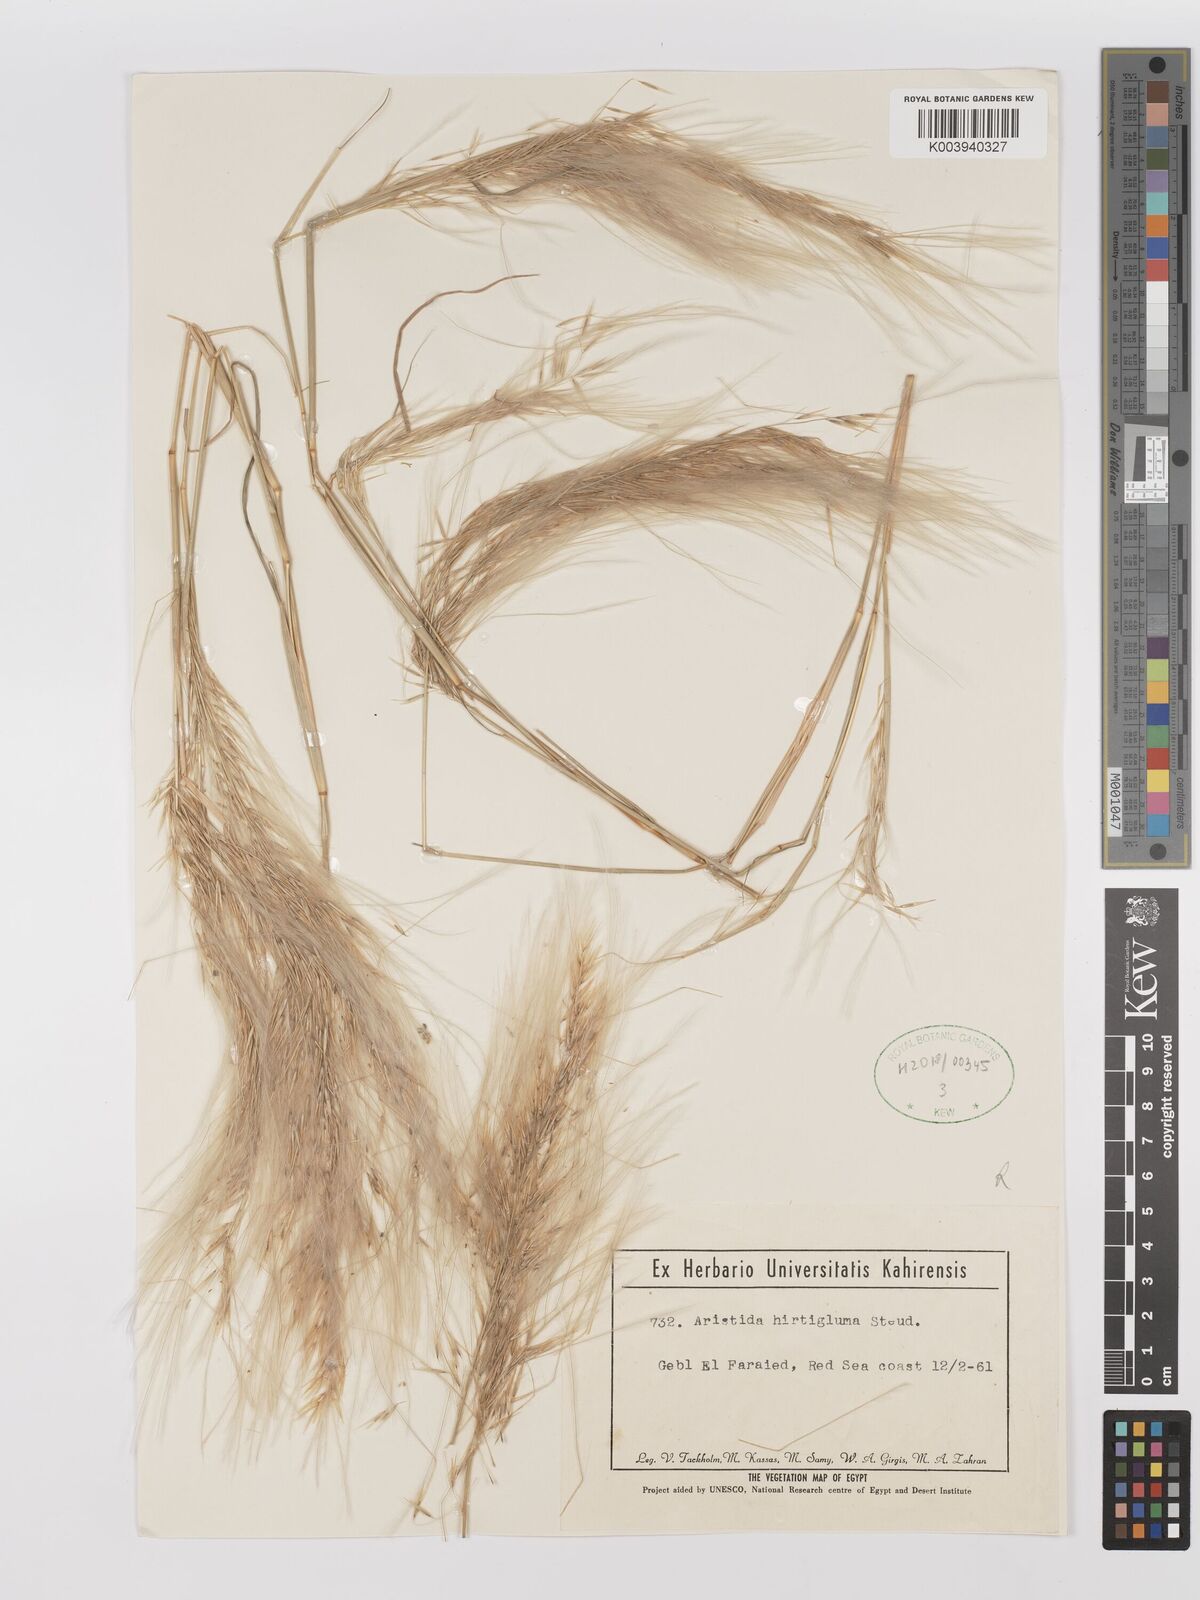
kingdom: Plantae
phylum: Tracheophyta
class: Liliopsida
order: Poales
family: Poaceae
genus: Stipagrostis
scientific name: Stipagrostis hirtigluma
